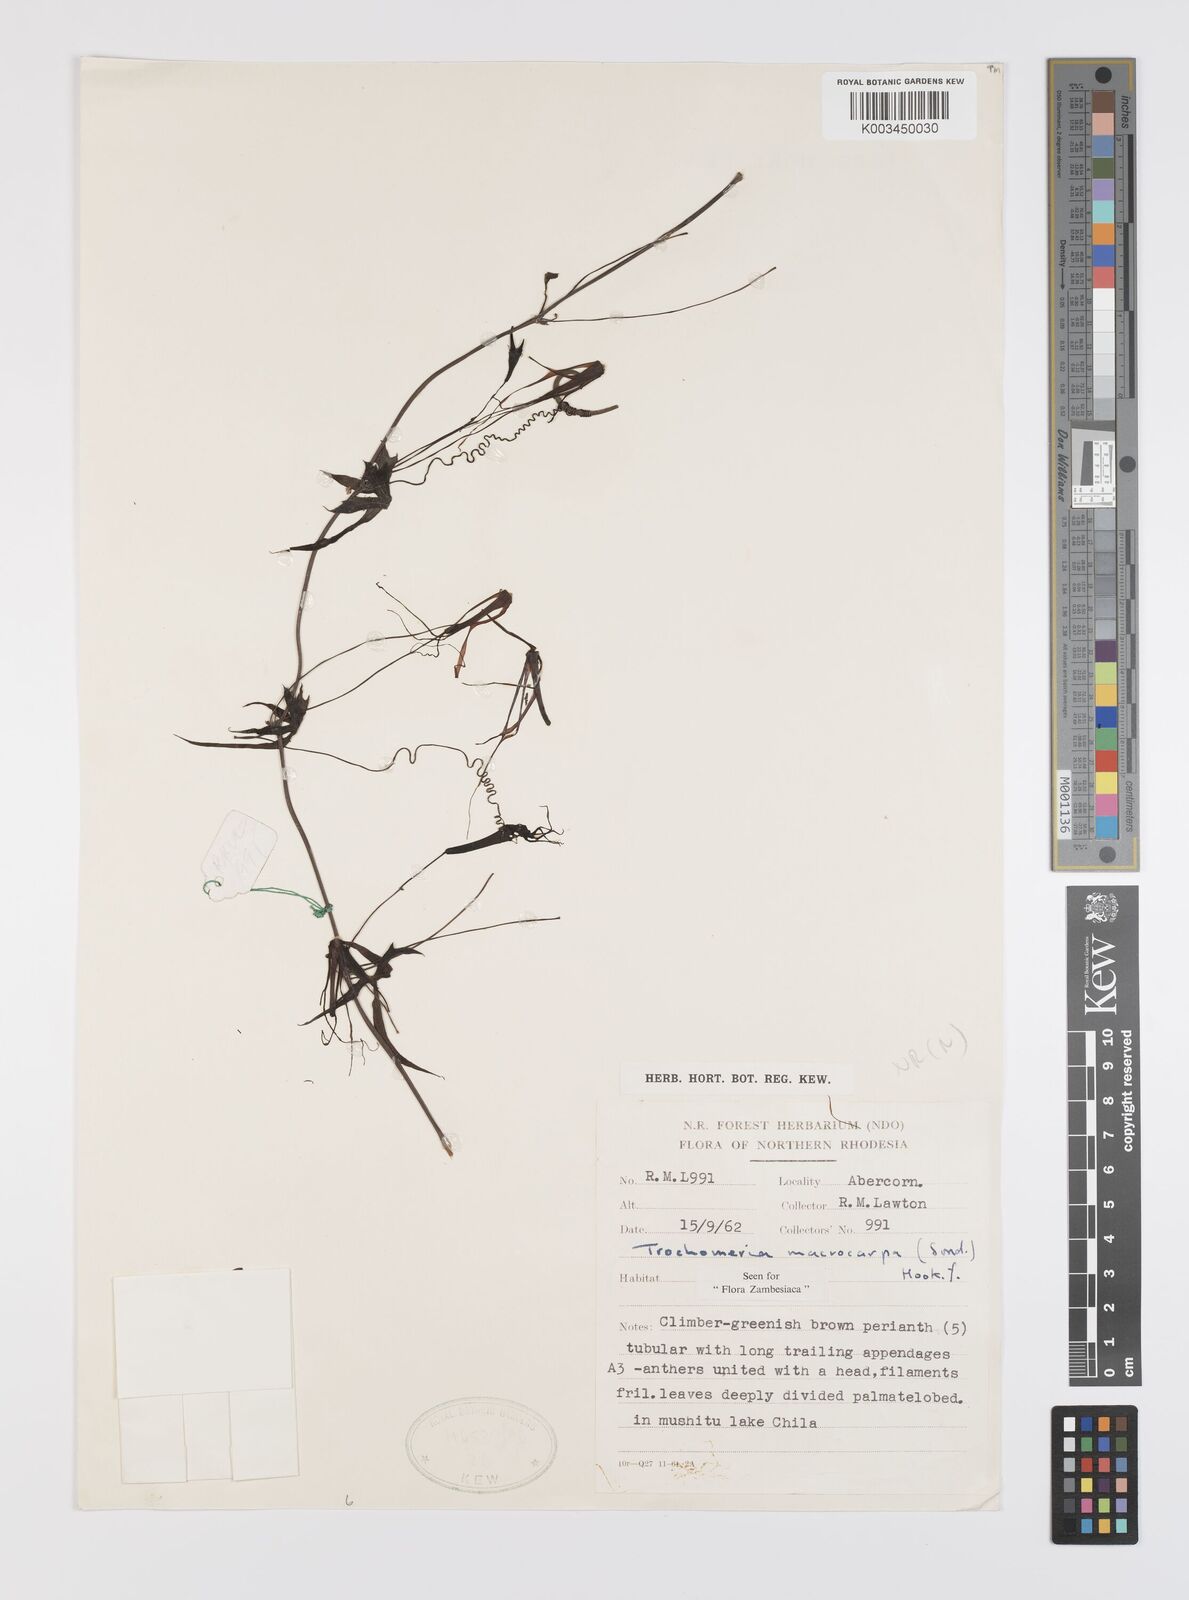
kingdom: Plantae
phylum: Tracheophyta
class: Magnoliopsida
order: Cucurbitales
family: Cucurbitaceae
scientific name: Cucurbitaceae
